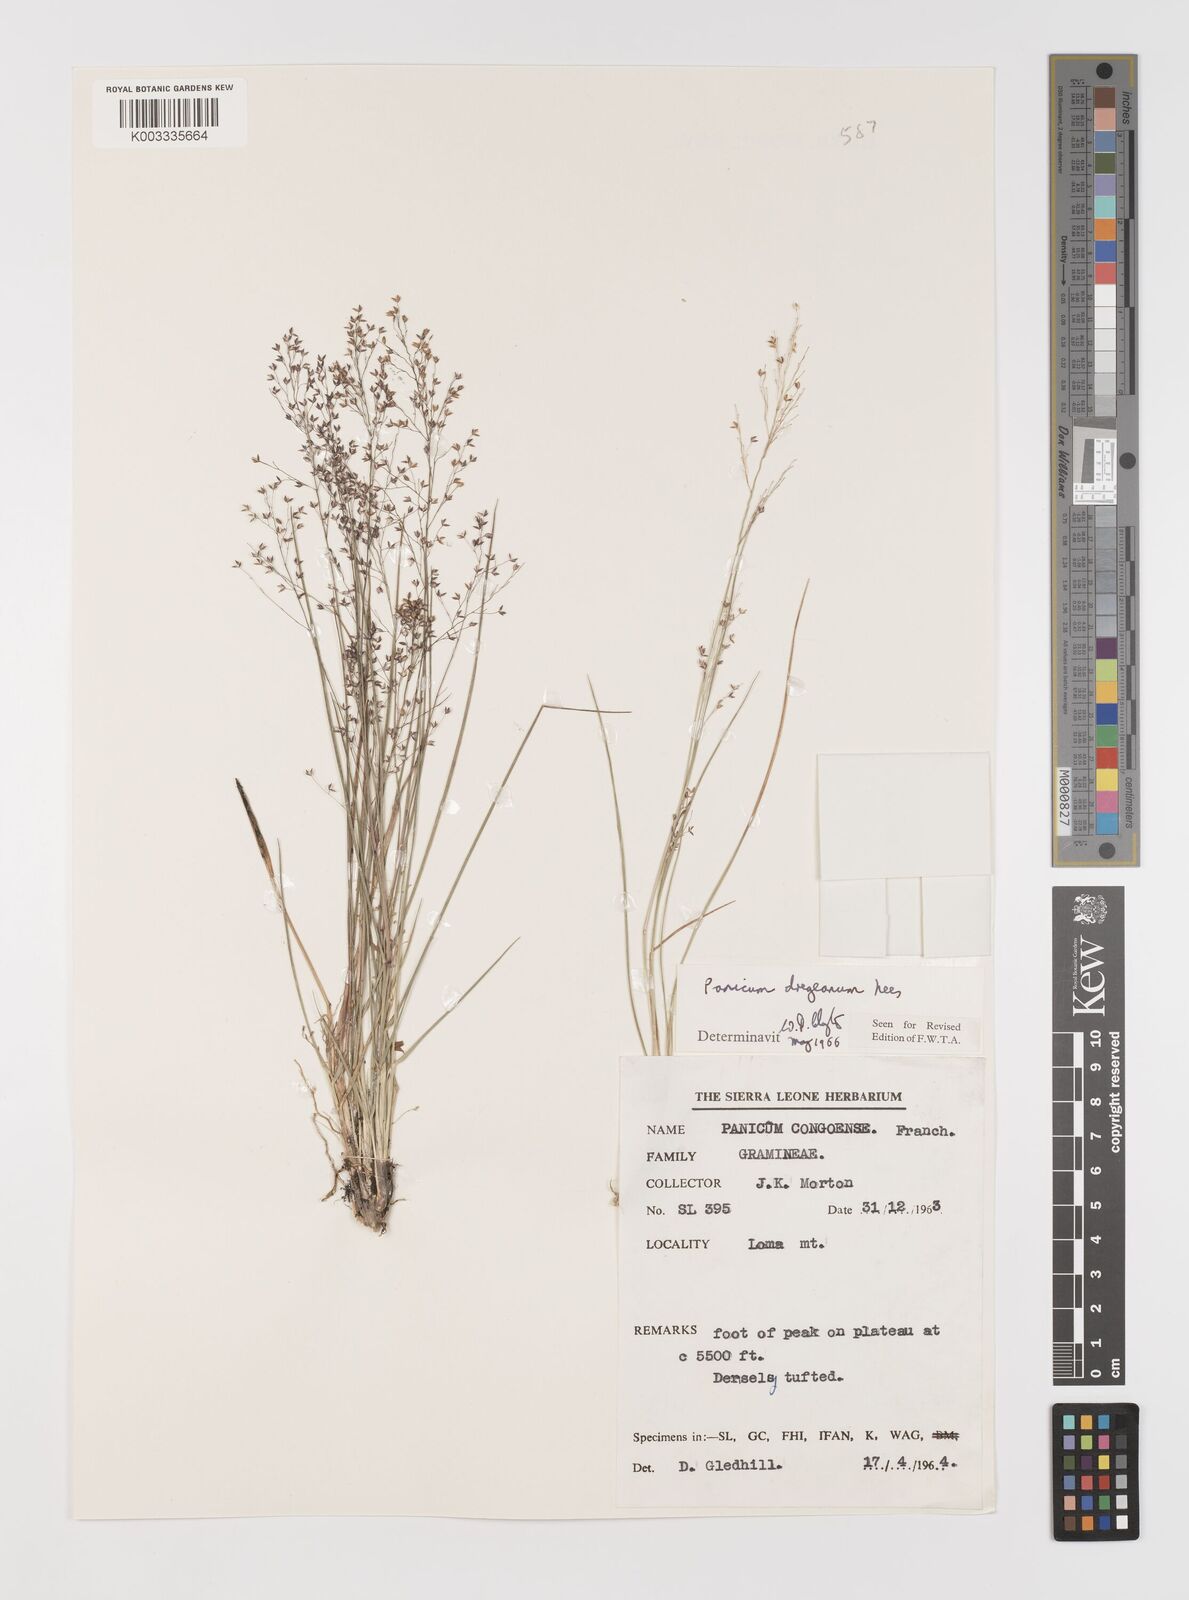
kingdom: Plantae
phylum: Tracheophyta
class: Liliopsida
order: Poales
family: Poaceae
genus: Panicum
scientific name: Panicum dregeanum
